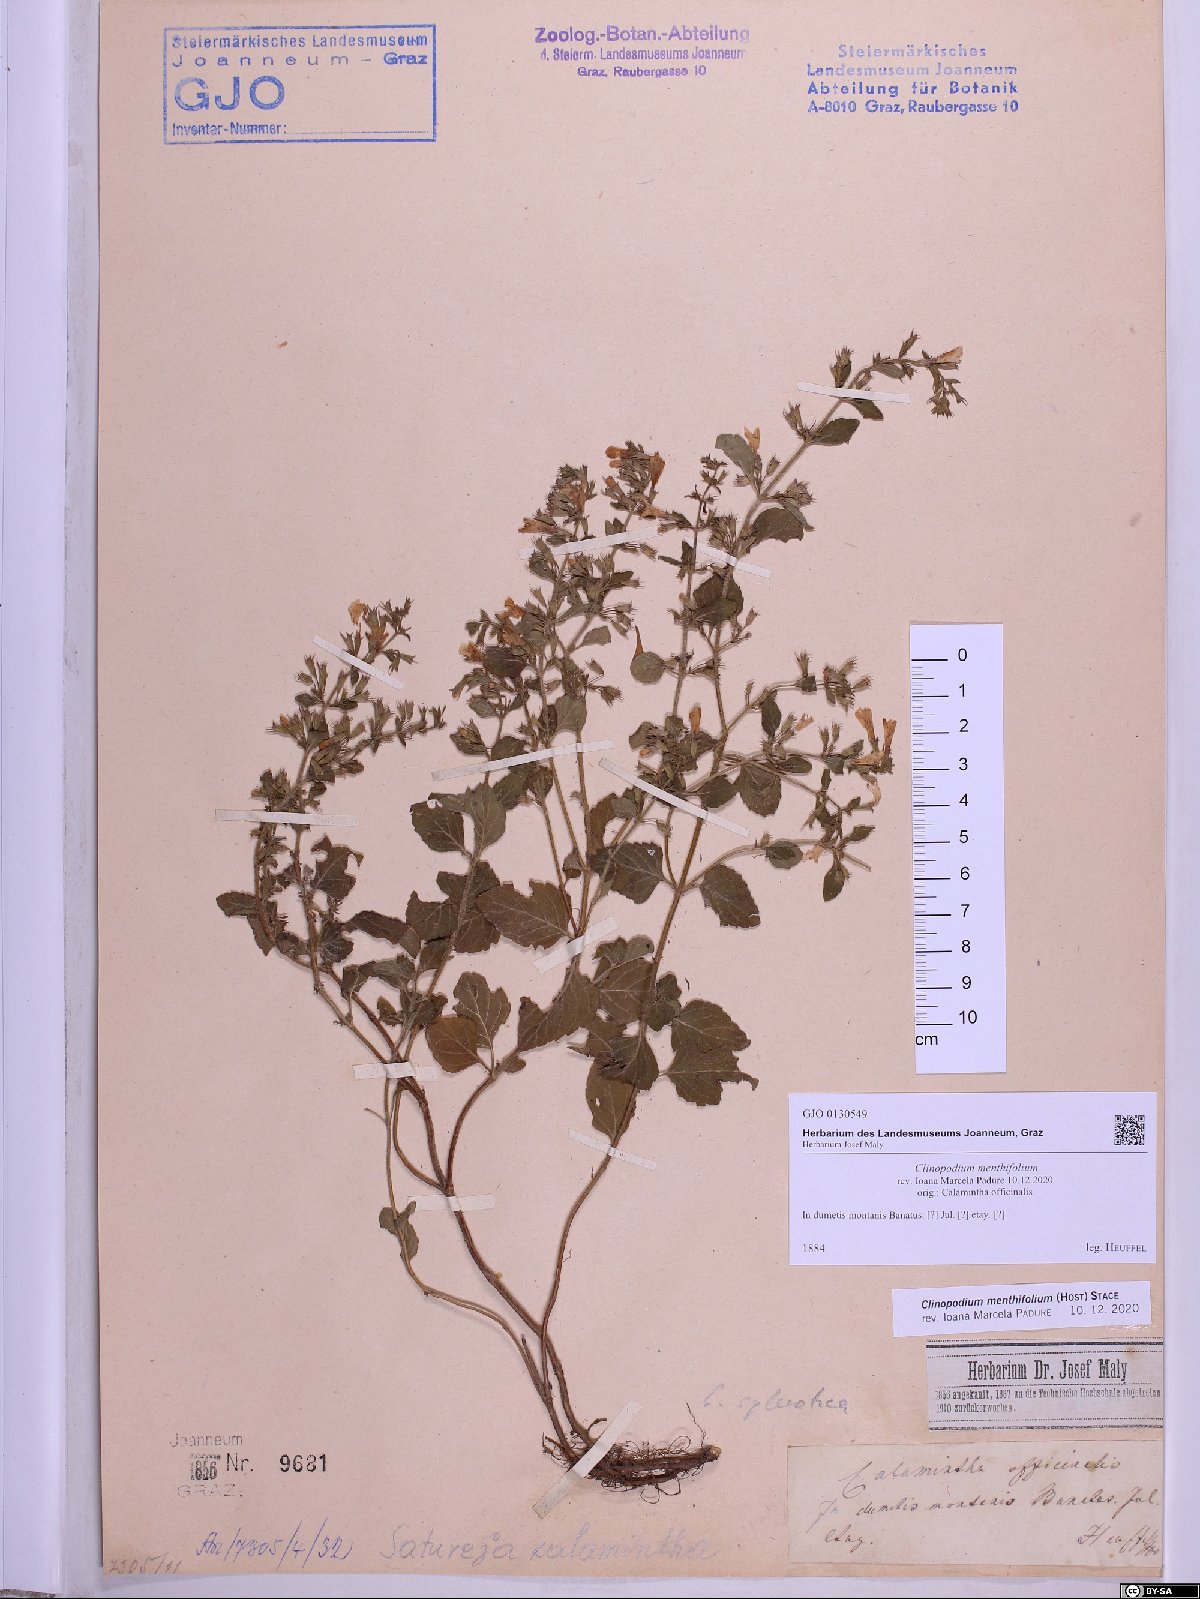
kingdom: Plantae
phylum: Tracheophyta
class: Magnoliopsida
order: Lamiales
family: Lamiaceae
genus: Clinopodium
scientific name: Clinopodium menthifolium
